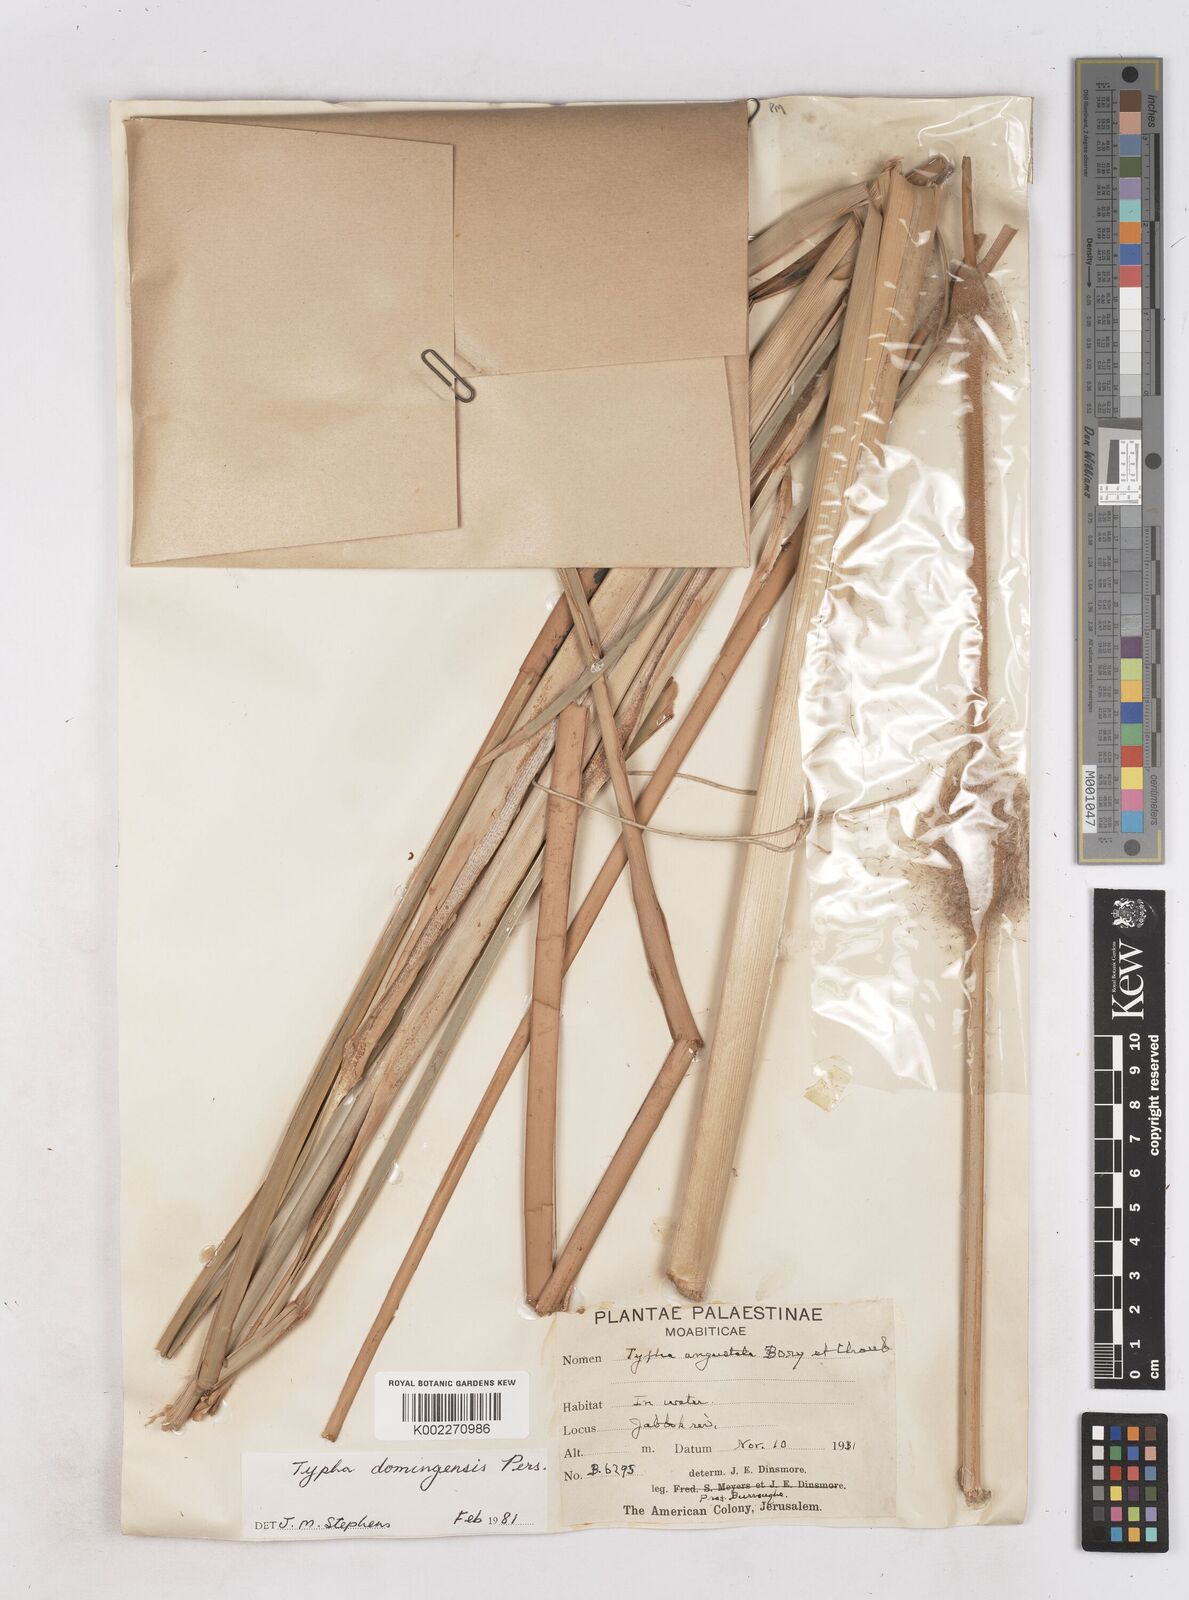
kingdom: Plantae
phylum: Tracheophyta
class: Liliopsida
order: Poales
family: Typhaceae
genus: Typha
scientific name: Typha domingensis
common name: Southern cattail
